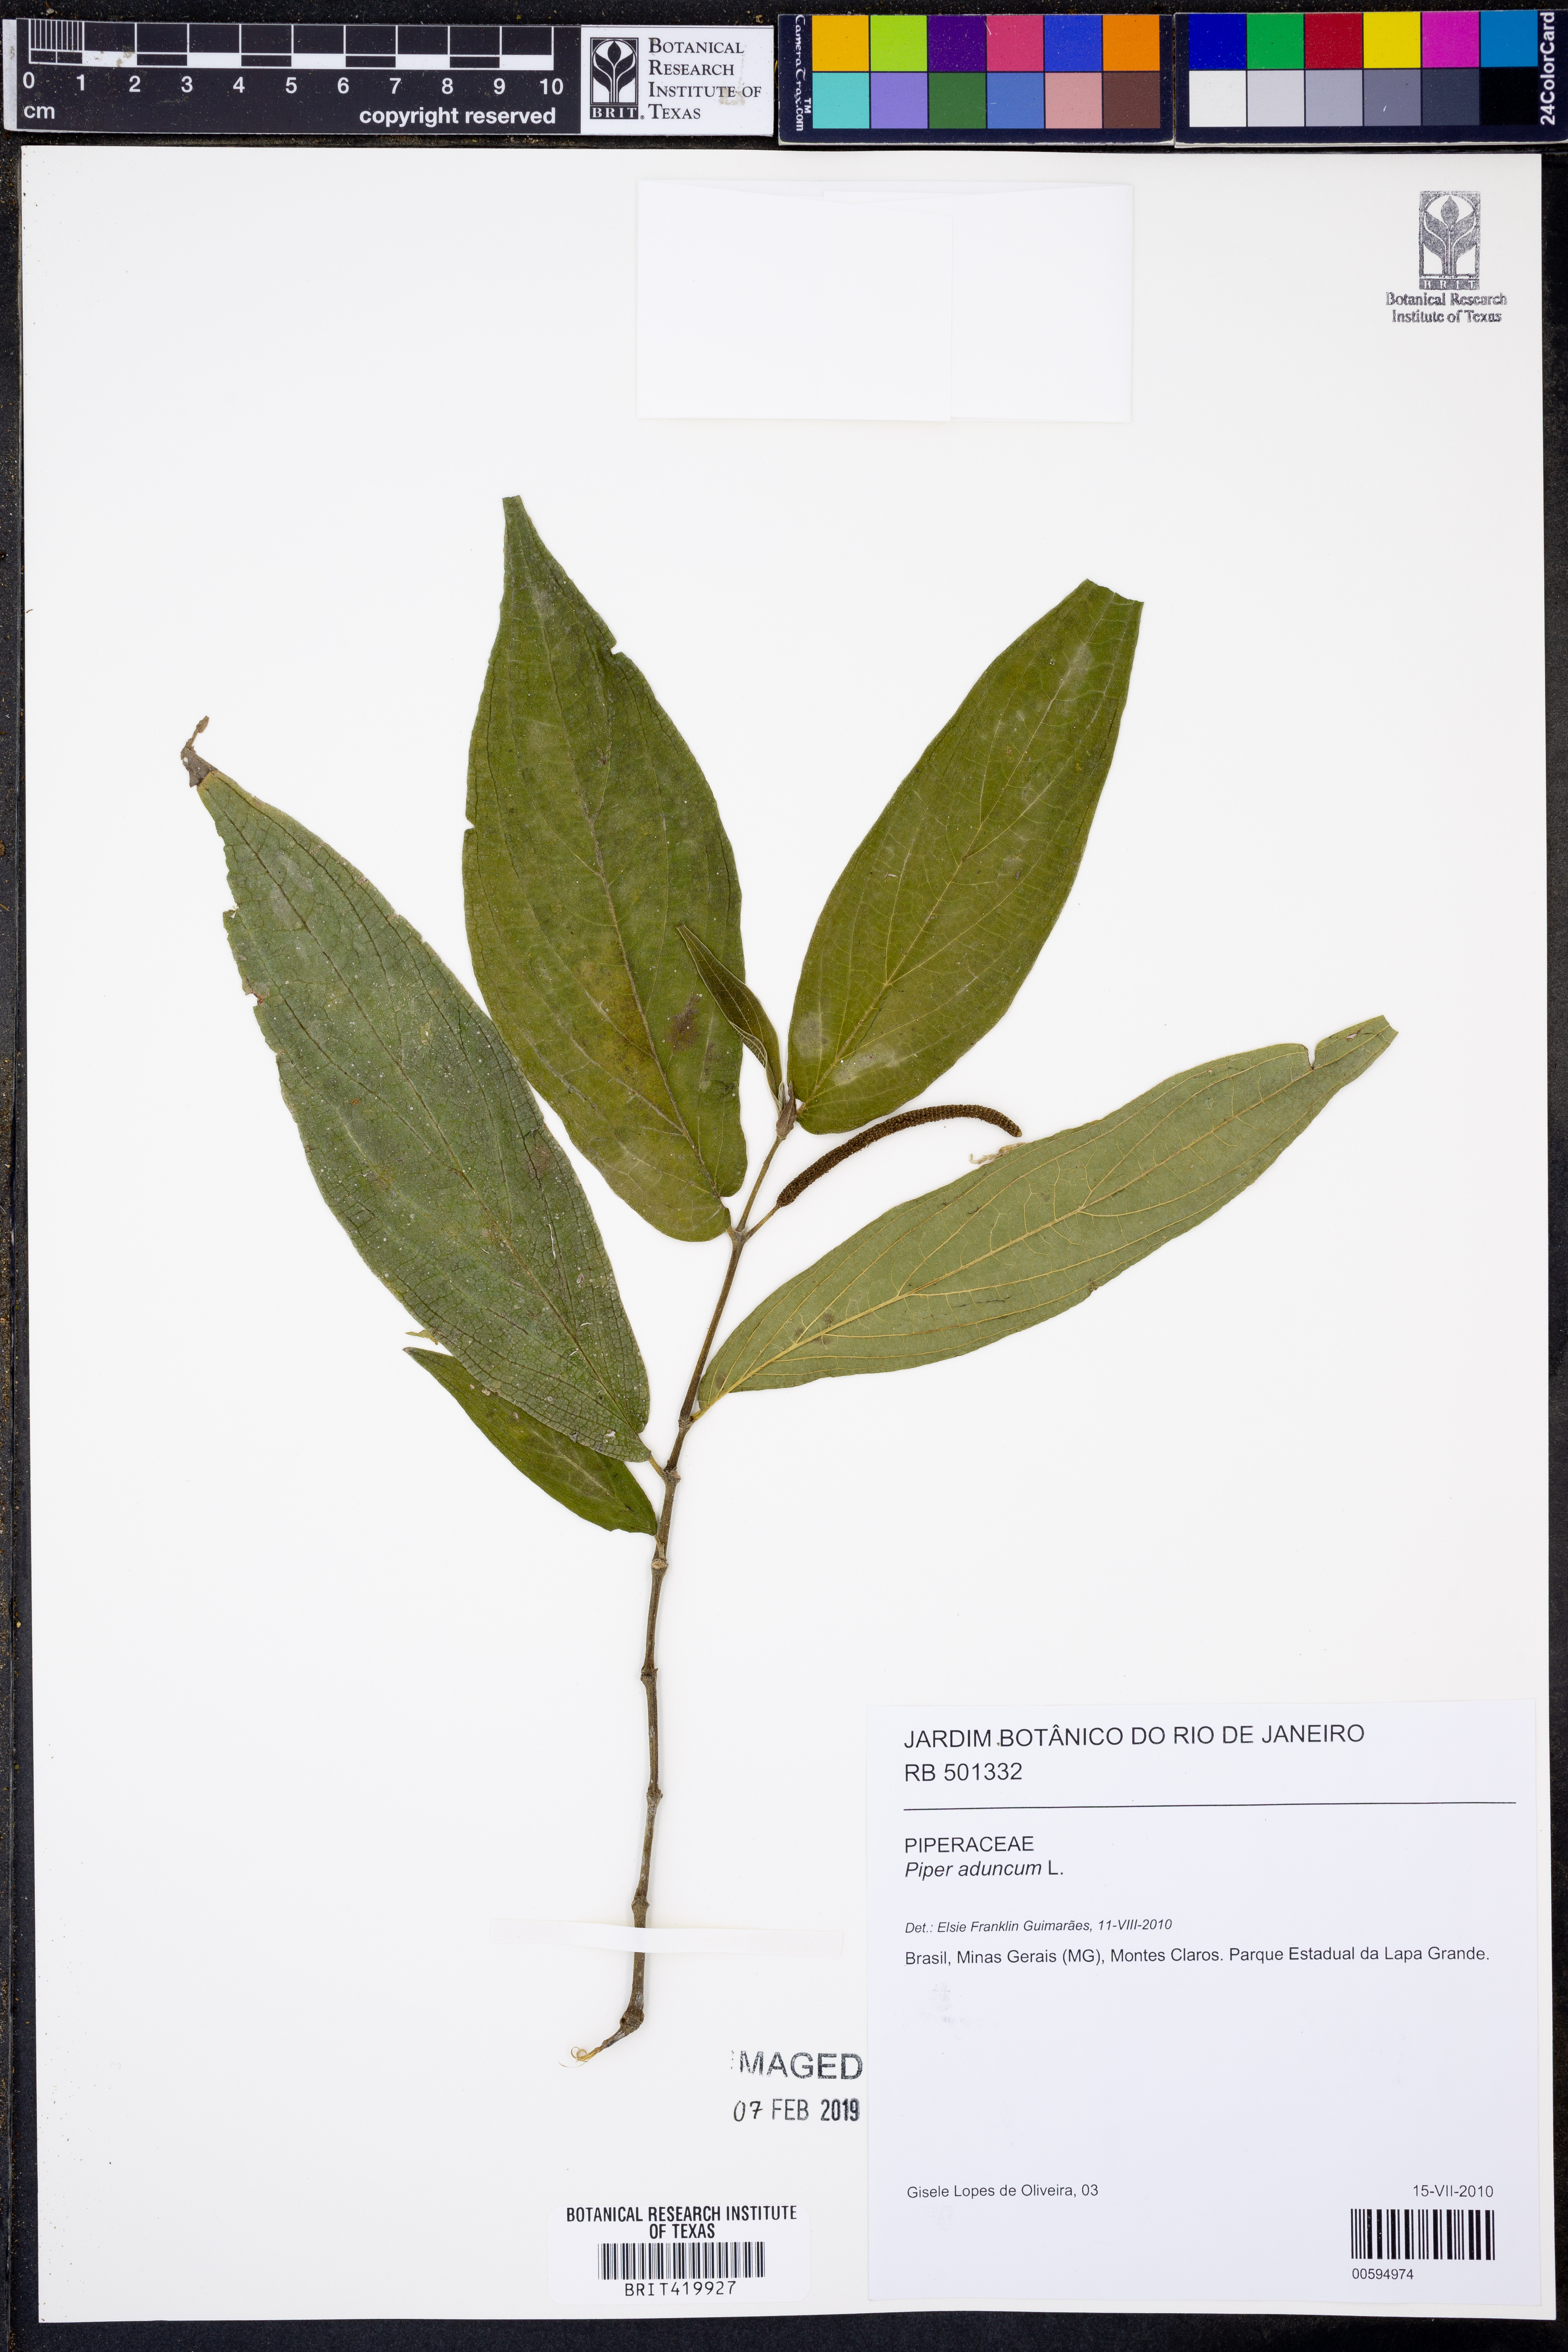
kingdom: Plantae
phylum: Tracheophyta
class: Magnoliopsida
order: Piperales
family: Piperaceae
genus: Piper
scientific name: Piper aduncum
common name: Spiked pepper
